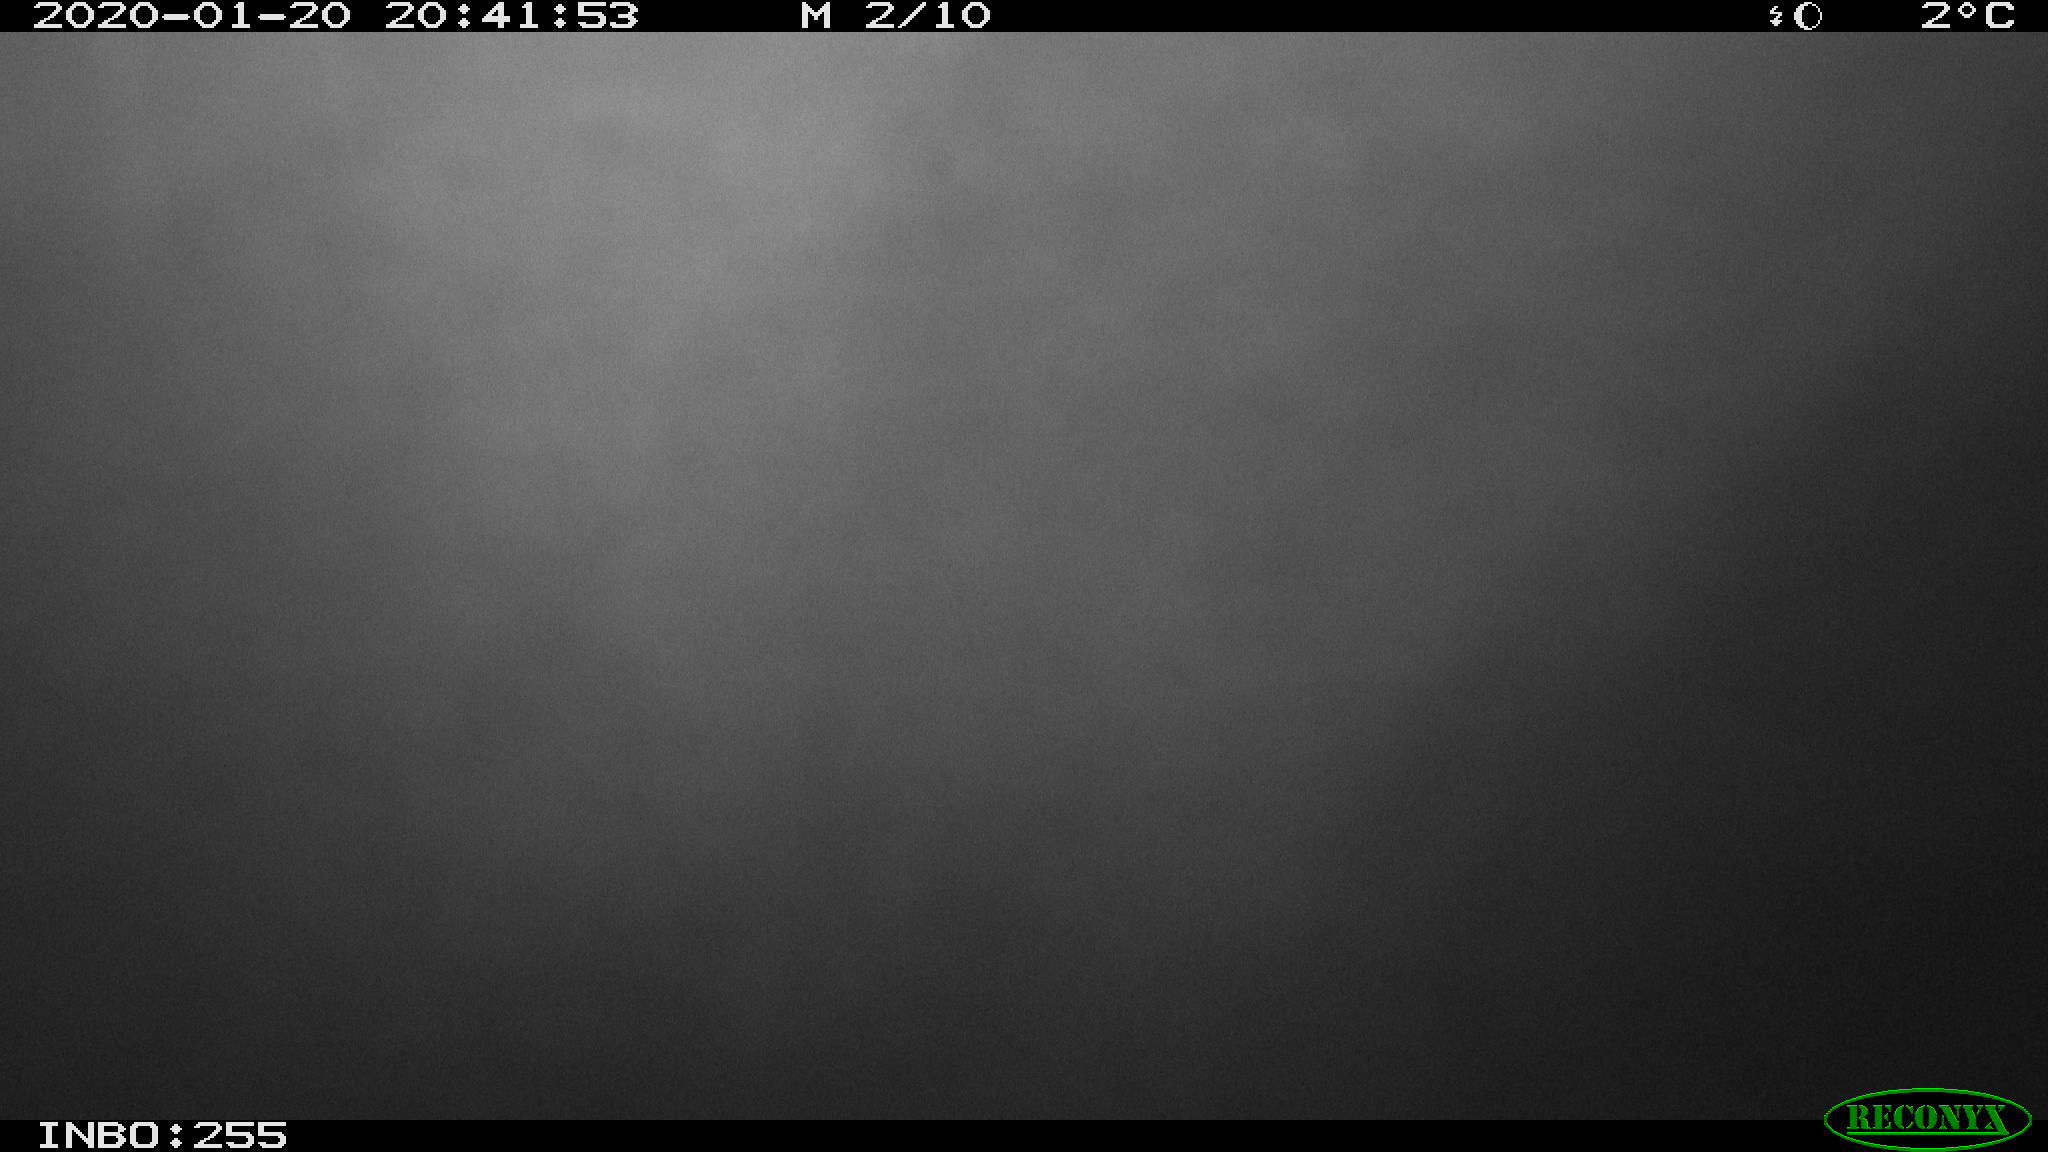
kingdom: Animalia
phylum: Chordata
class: Mammalia
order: Rodentia
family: Cricetidae
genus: Ondatra
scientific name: Ondatra zibethicus
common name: Muskrat
